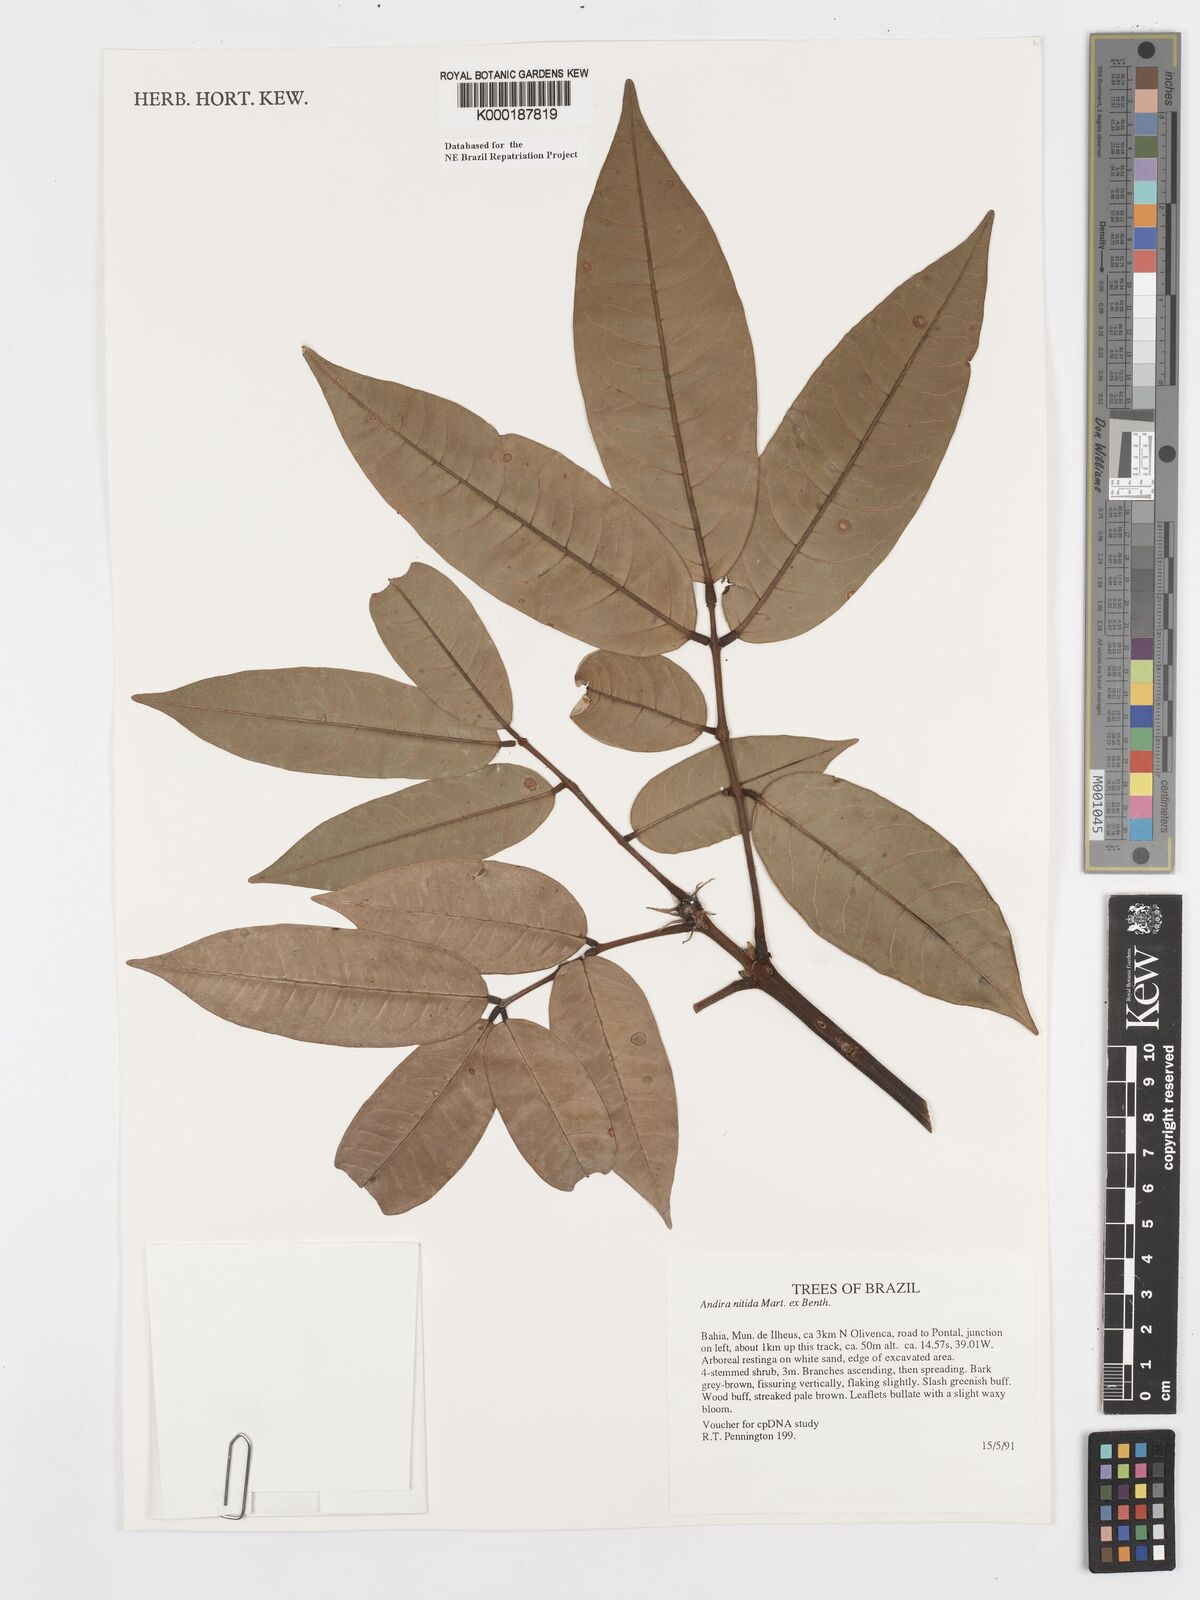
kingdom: Plantae
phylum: Tracheophyta
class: Magnoliopsida
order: Fabales
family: Fabaceae
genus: Andira
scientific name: Andira nitida
